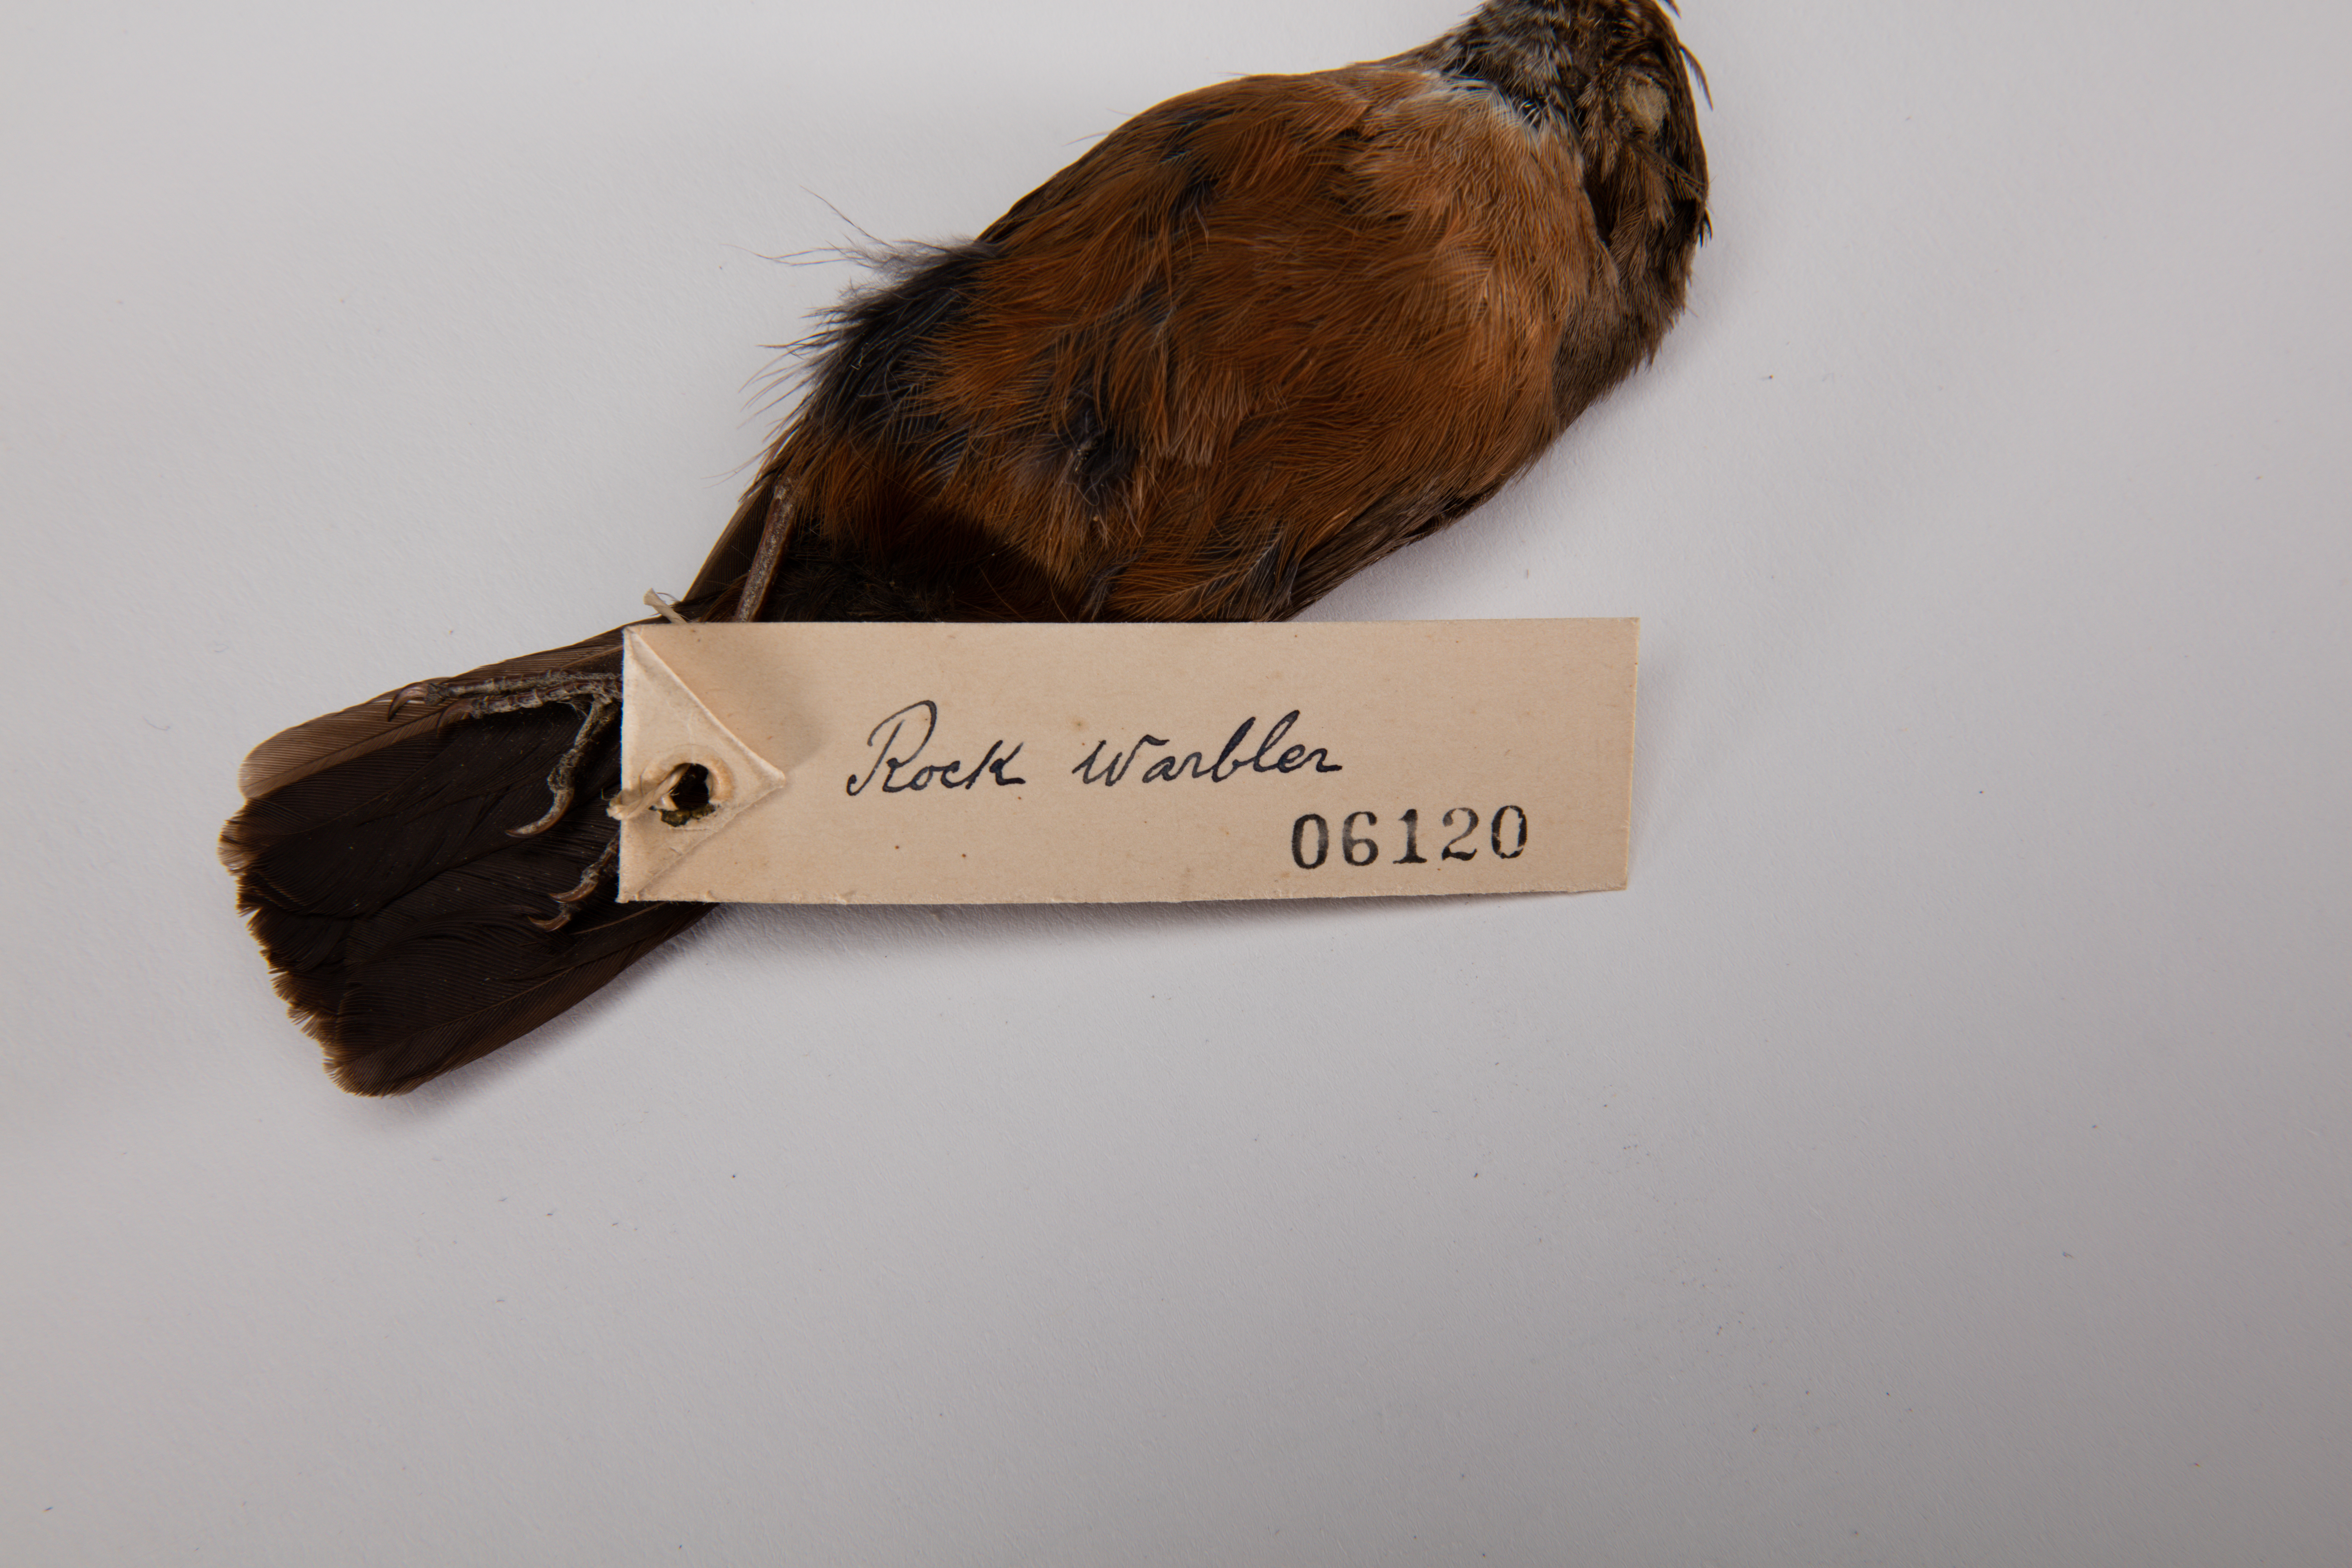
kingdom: Animalia
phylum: Chordata
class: Aves
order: Passeriformes
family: Acanthizidae
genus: Origma
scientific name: Origma solitaria
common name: Rockwarbler
